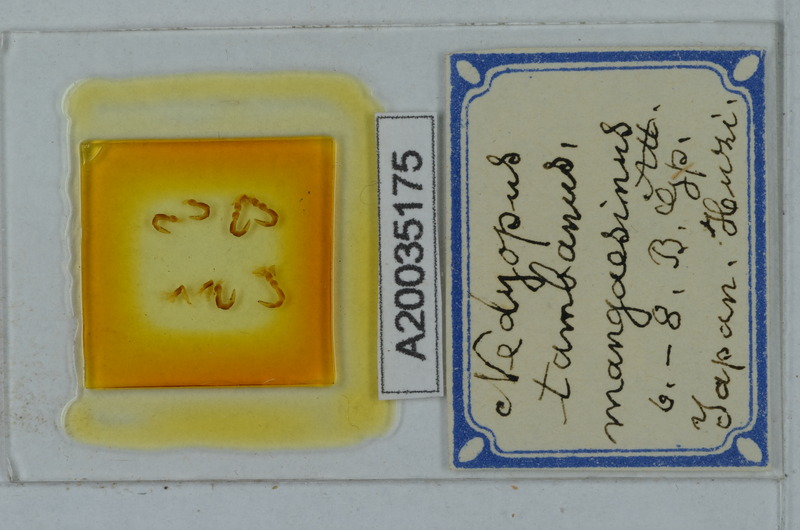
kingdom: Animalia
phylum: Arthropoda
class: Diplopoda
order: Polydesmida
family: Paradoxosomatidae
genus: Nedyopus
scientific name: Nedyopus tambanus
